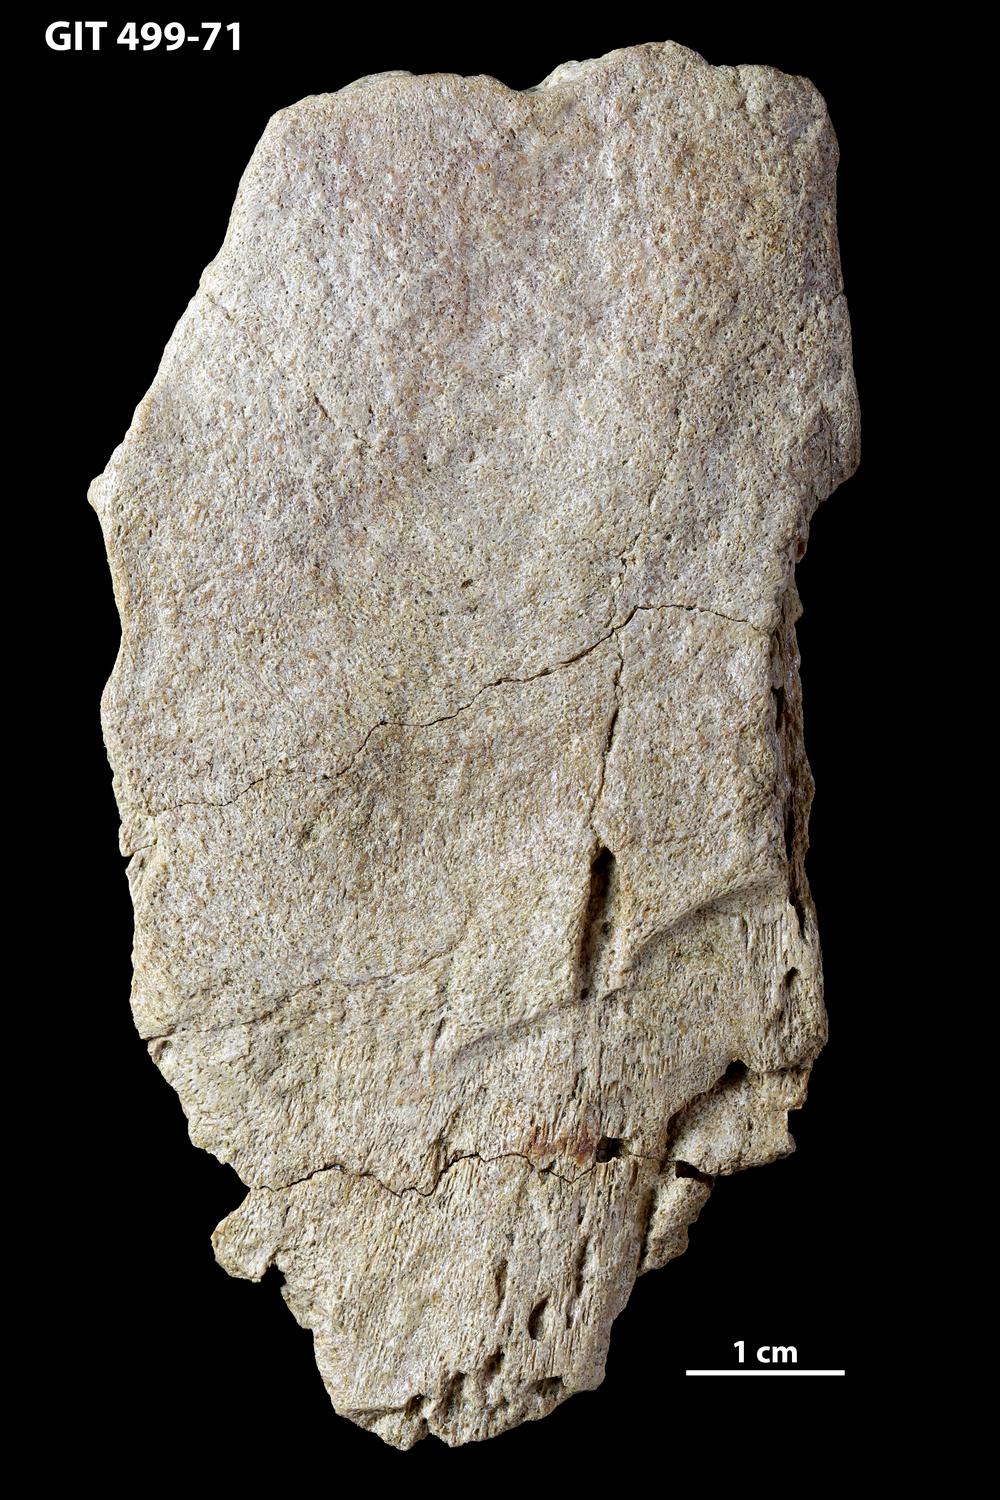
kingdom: Animalia
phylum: Chordata
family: Holoptychiidae
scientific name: Holoptychiidae
